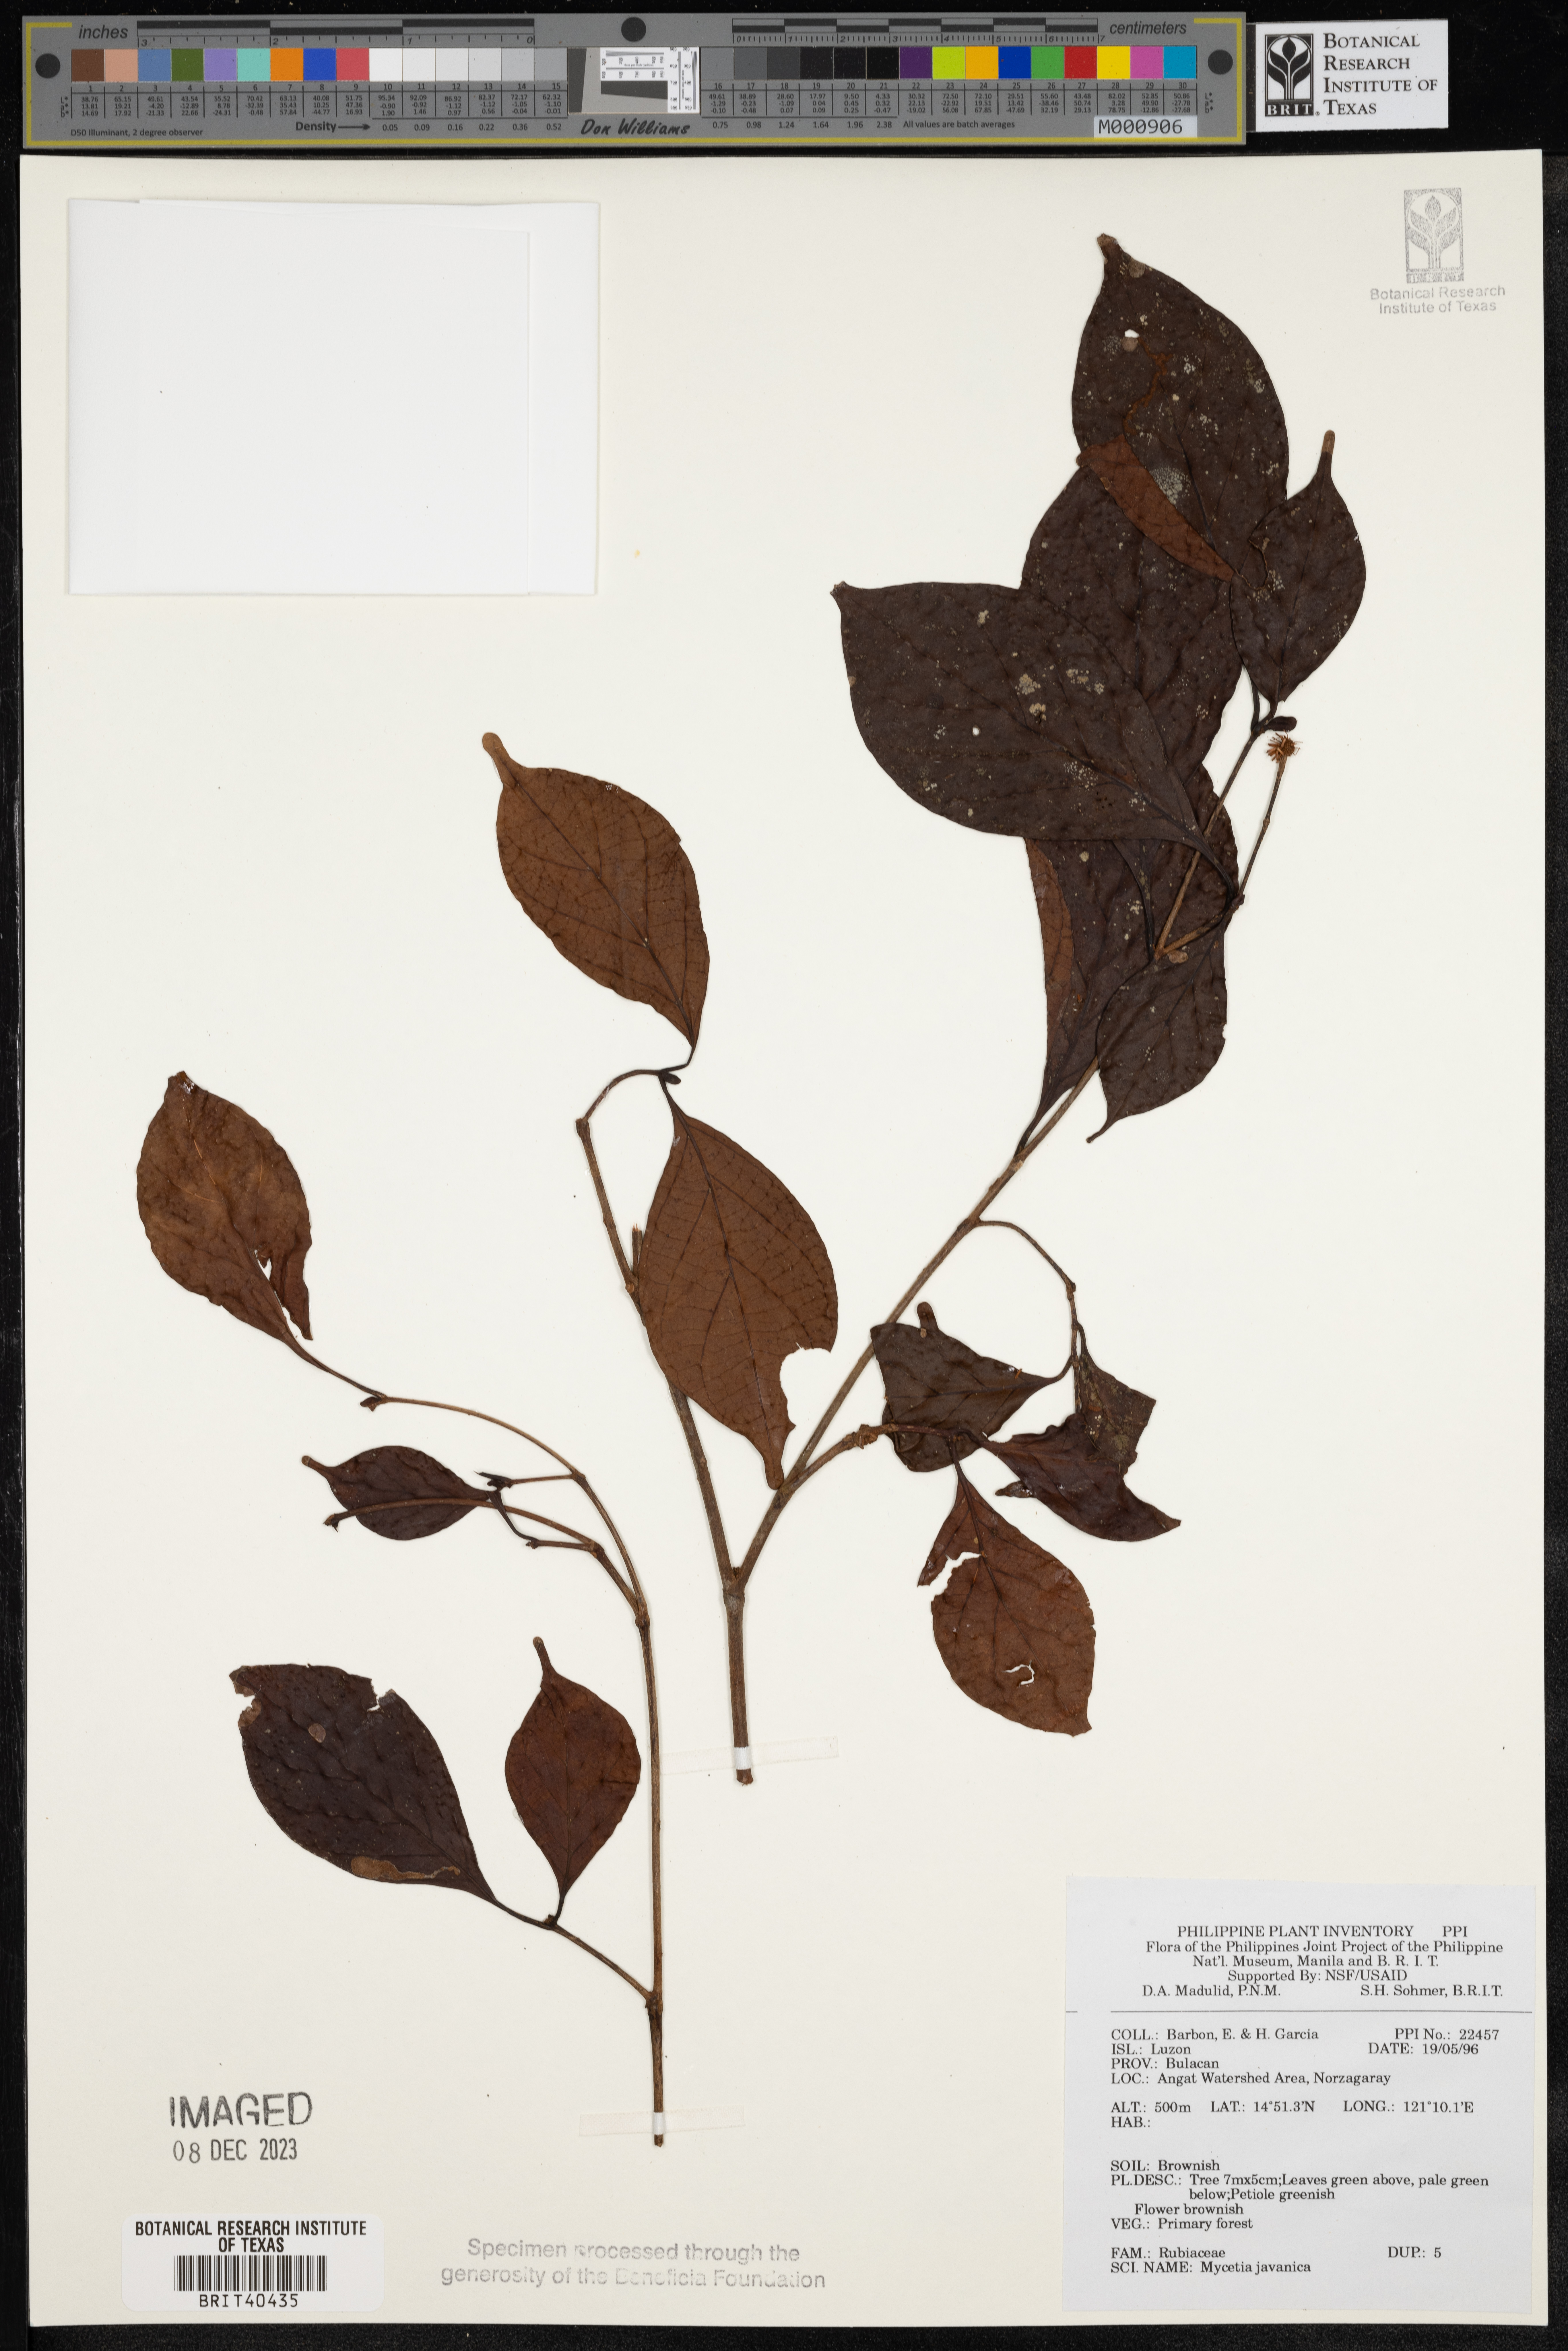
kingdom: Plantae
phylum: Tracheophyta
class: Magnoliopsida
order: Gentianales
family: Rubiaceae
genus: Mycetia
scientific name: Mycetia javanica
